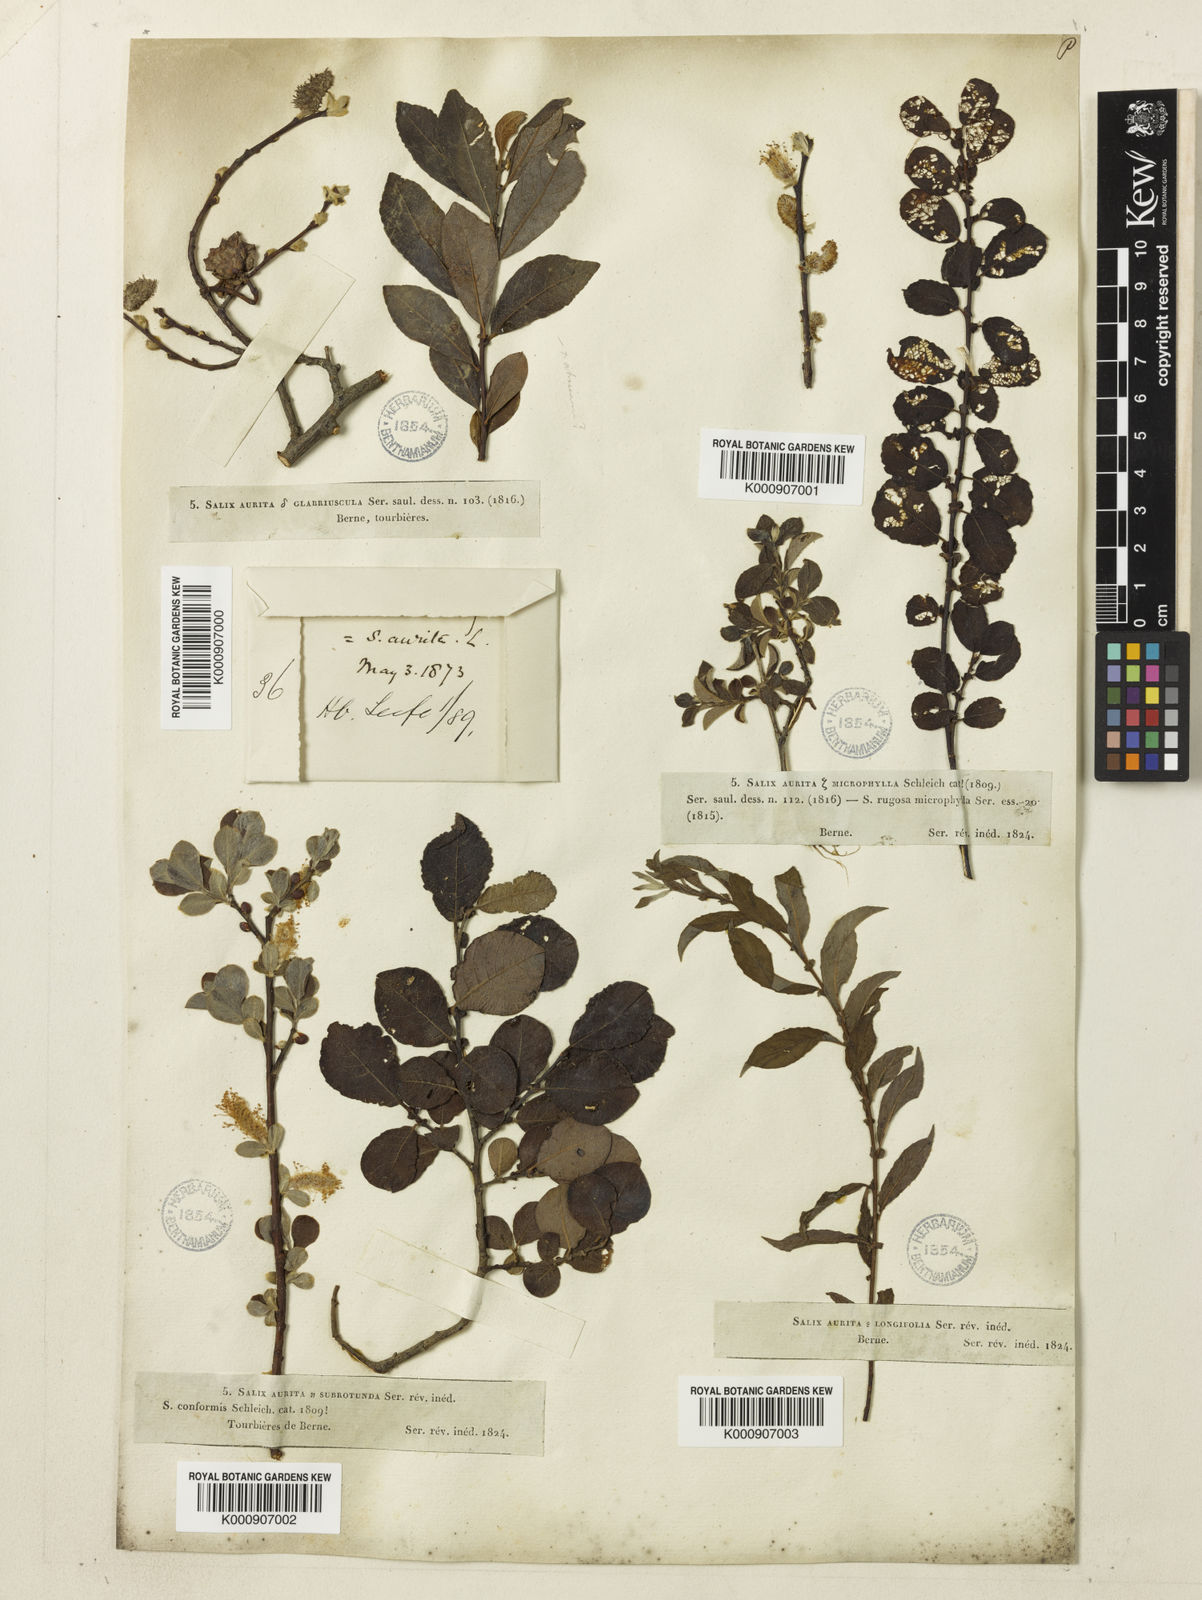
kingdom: Plantae
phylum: Tracheophyta
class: Magnoliopsida
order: Malpighiales
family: Salicaceae
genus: Salix
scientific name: Salix aurita
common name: Eared willow
